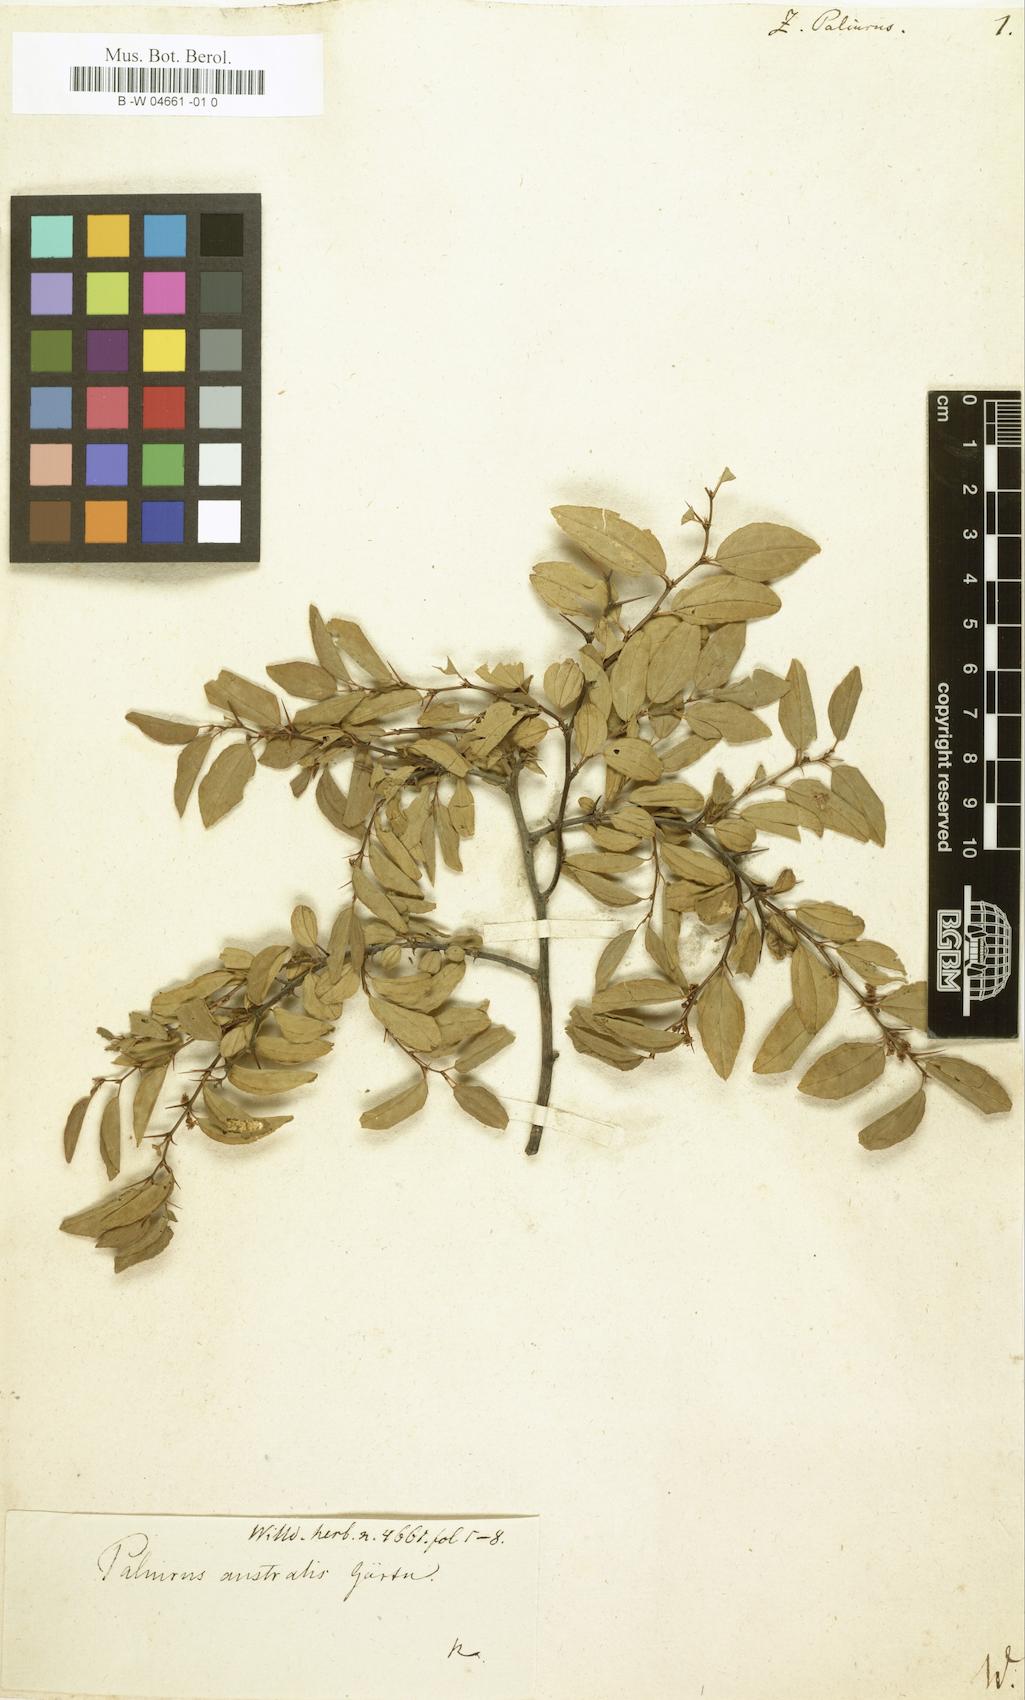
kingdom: Plantae
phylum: Tracheophyta
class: Magnoliopsida
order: Rosales
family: Rhamnaceae
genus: Paliurus
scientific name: Paliurus spina-christi
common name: Jeruselem thorn
